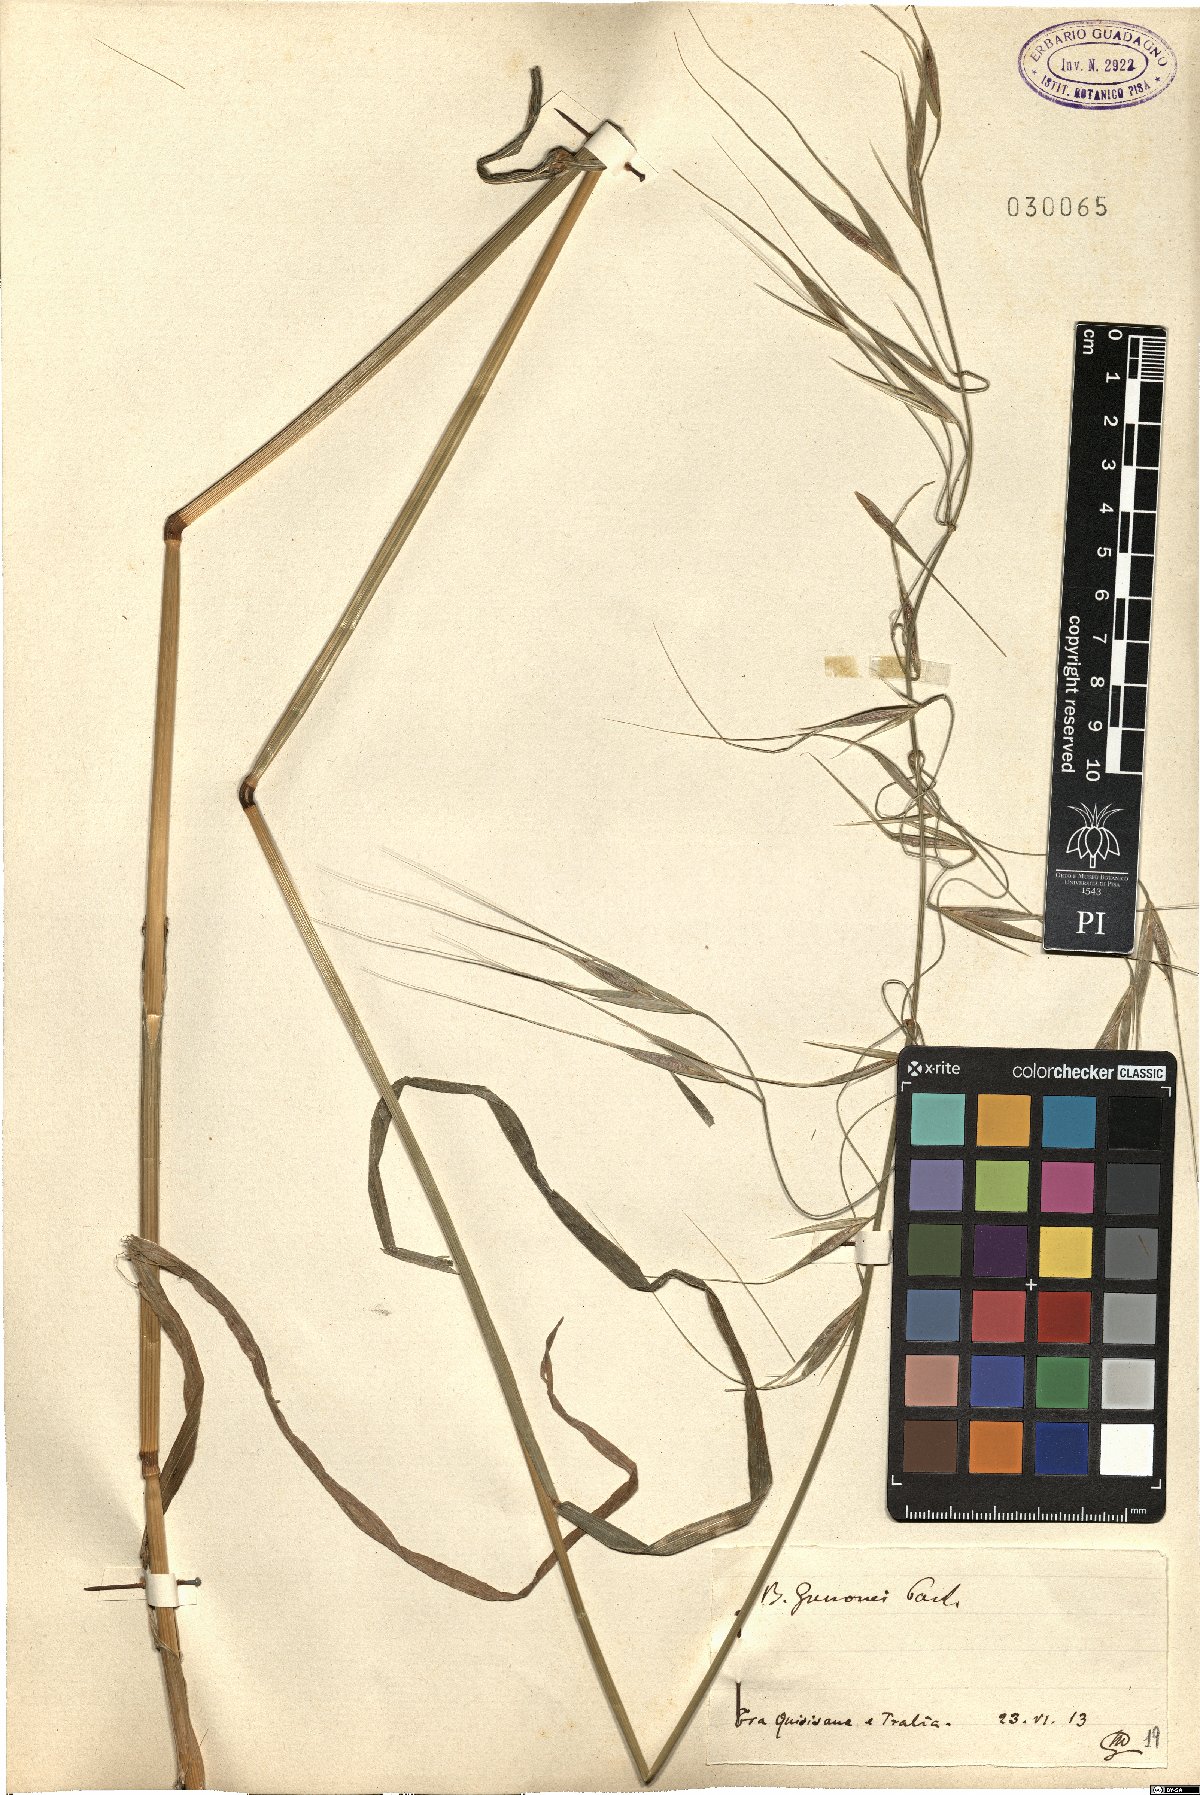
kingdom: Plantae
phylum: Tracheophyta
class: Liliopsida
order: Poales
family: Poaceae
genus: Bromus
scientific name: Bromus diandrus
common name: Ripgut brome
